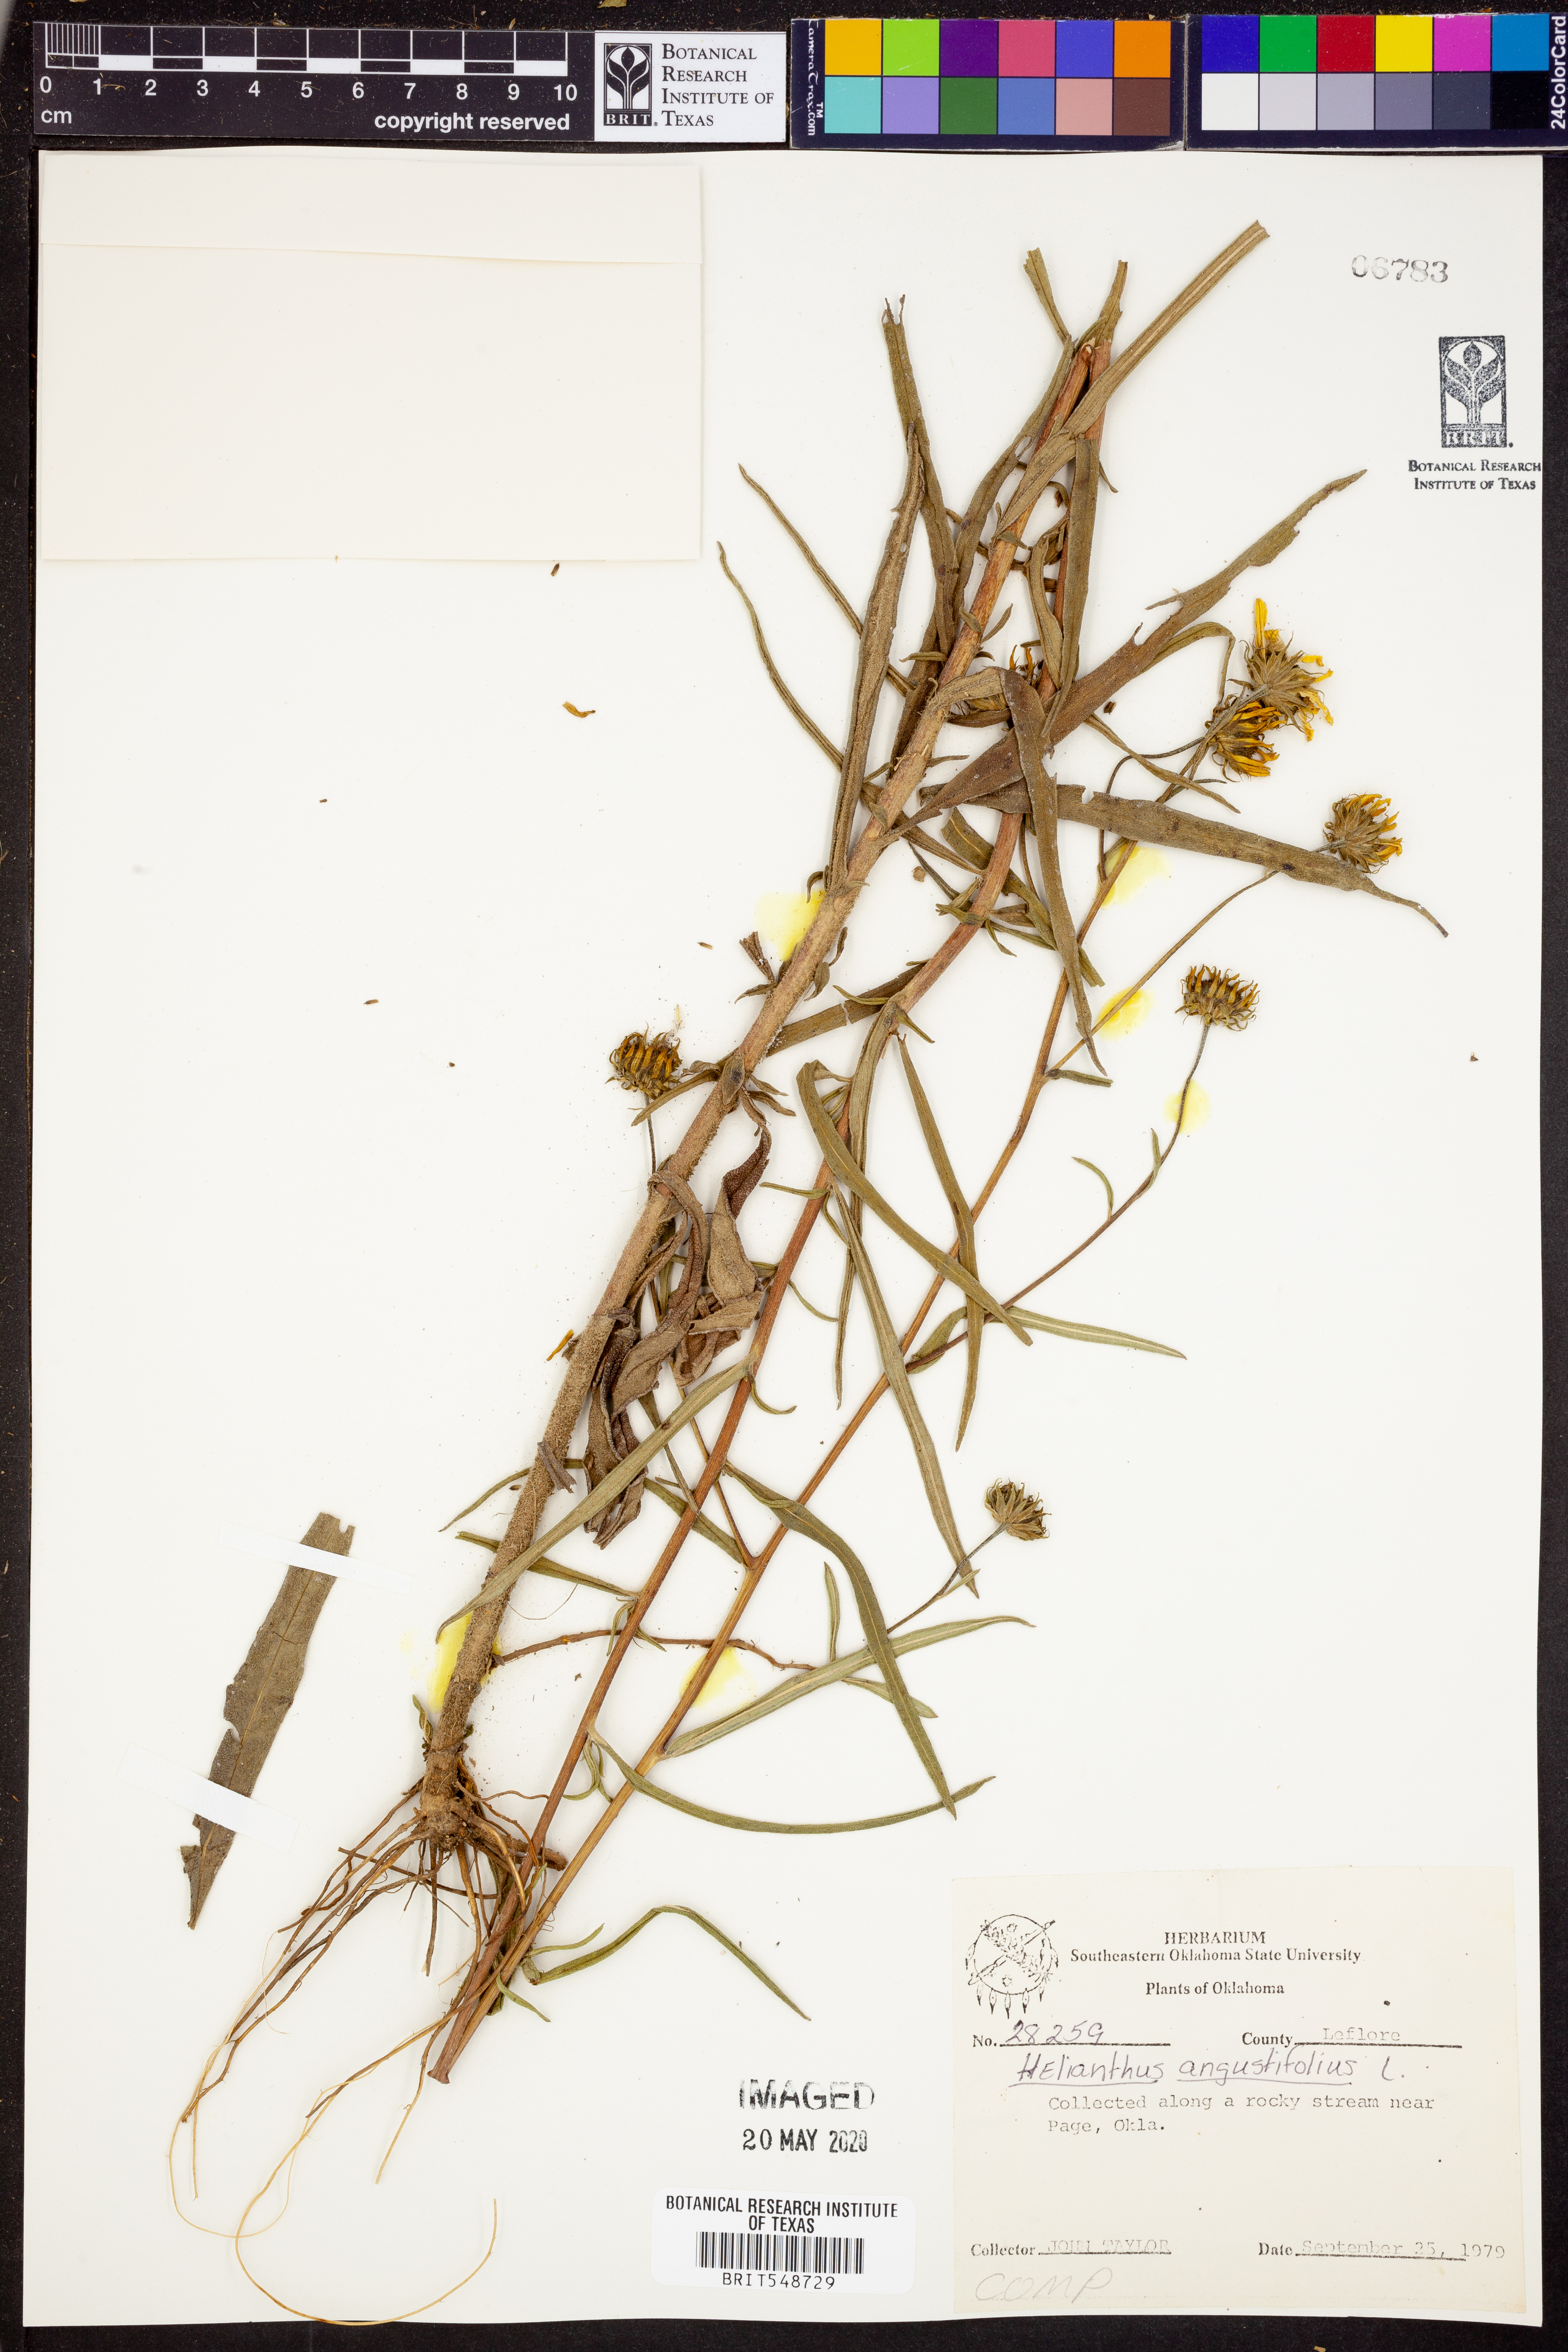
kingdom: Plantae
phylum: Tracheophyta
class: Magnoliopsida
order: Asterales
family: Asteraceae
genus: Helianthus
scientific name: Helianthus angustifolius
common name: Swamp sunflower
